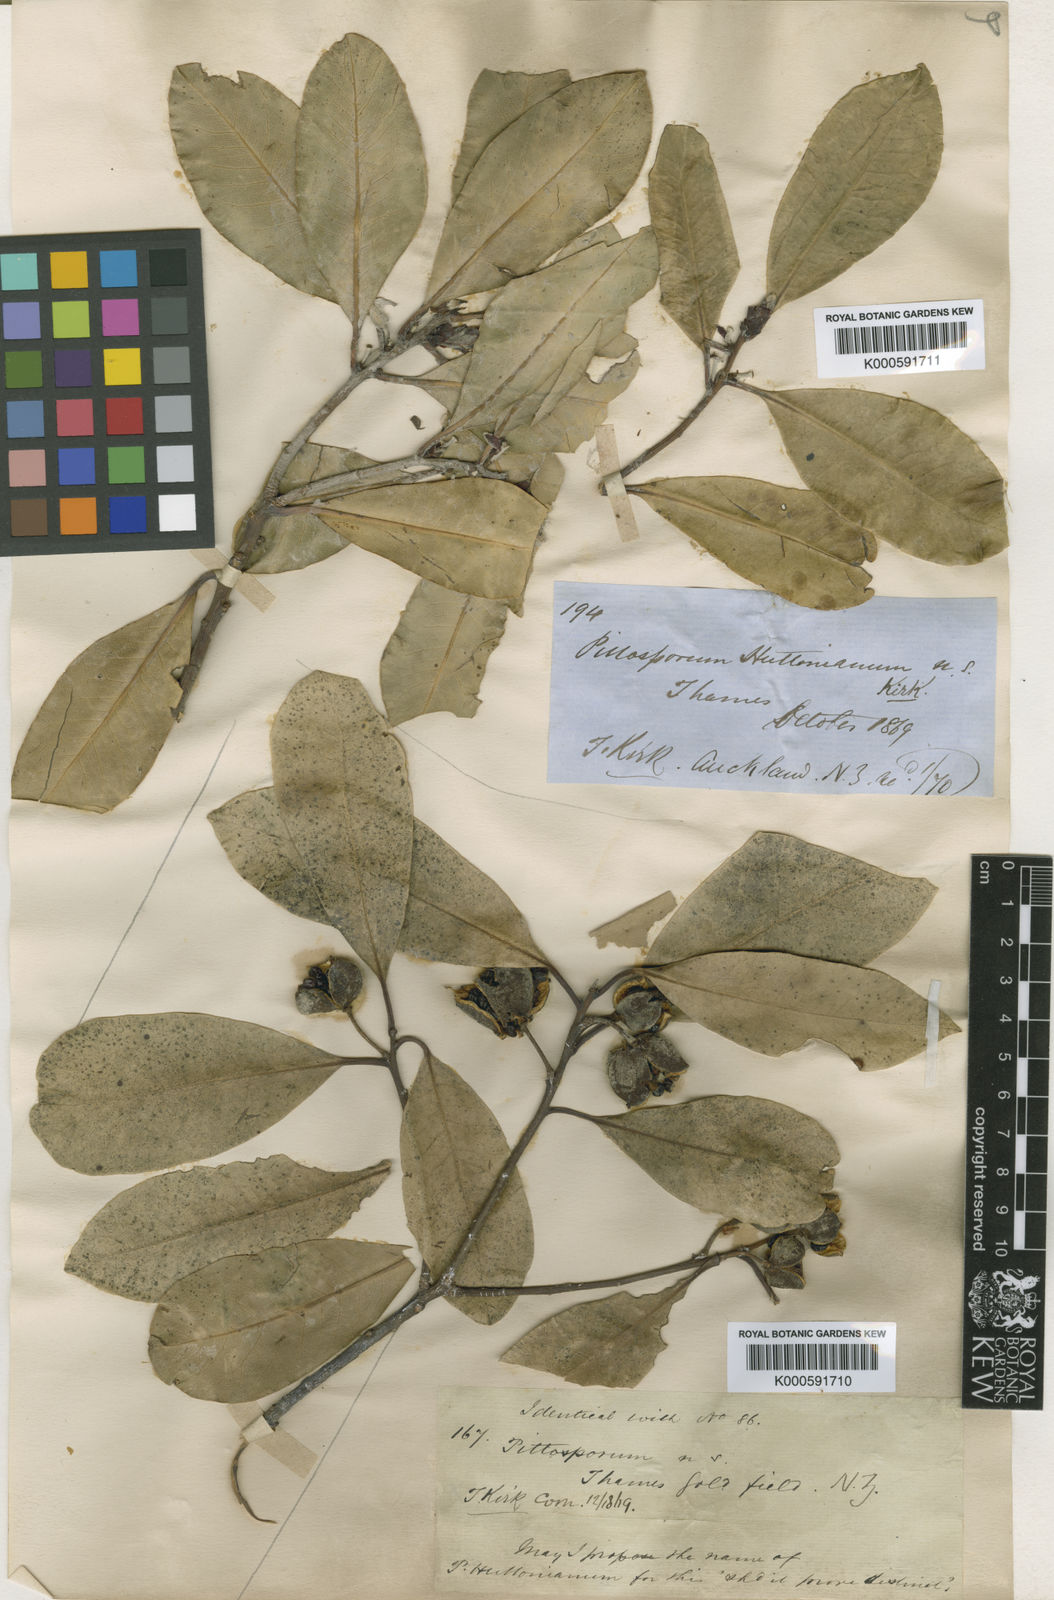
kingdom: Plantae
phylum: Tracheophyta
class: Magnoliopsida
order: Apiales
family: Pittosporaceae
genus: Pittosporum
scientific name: Pittosporum huttonianum
